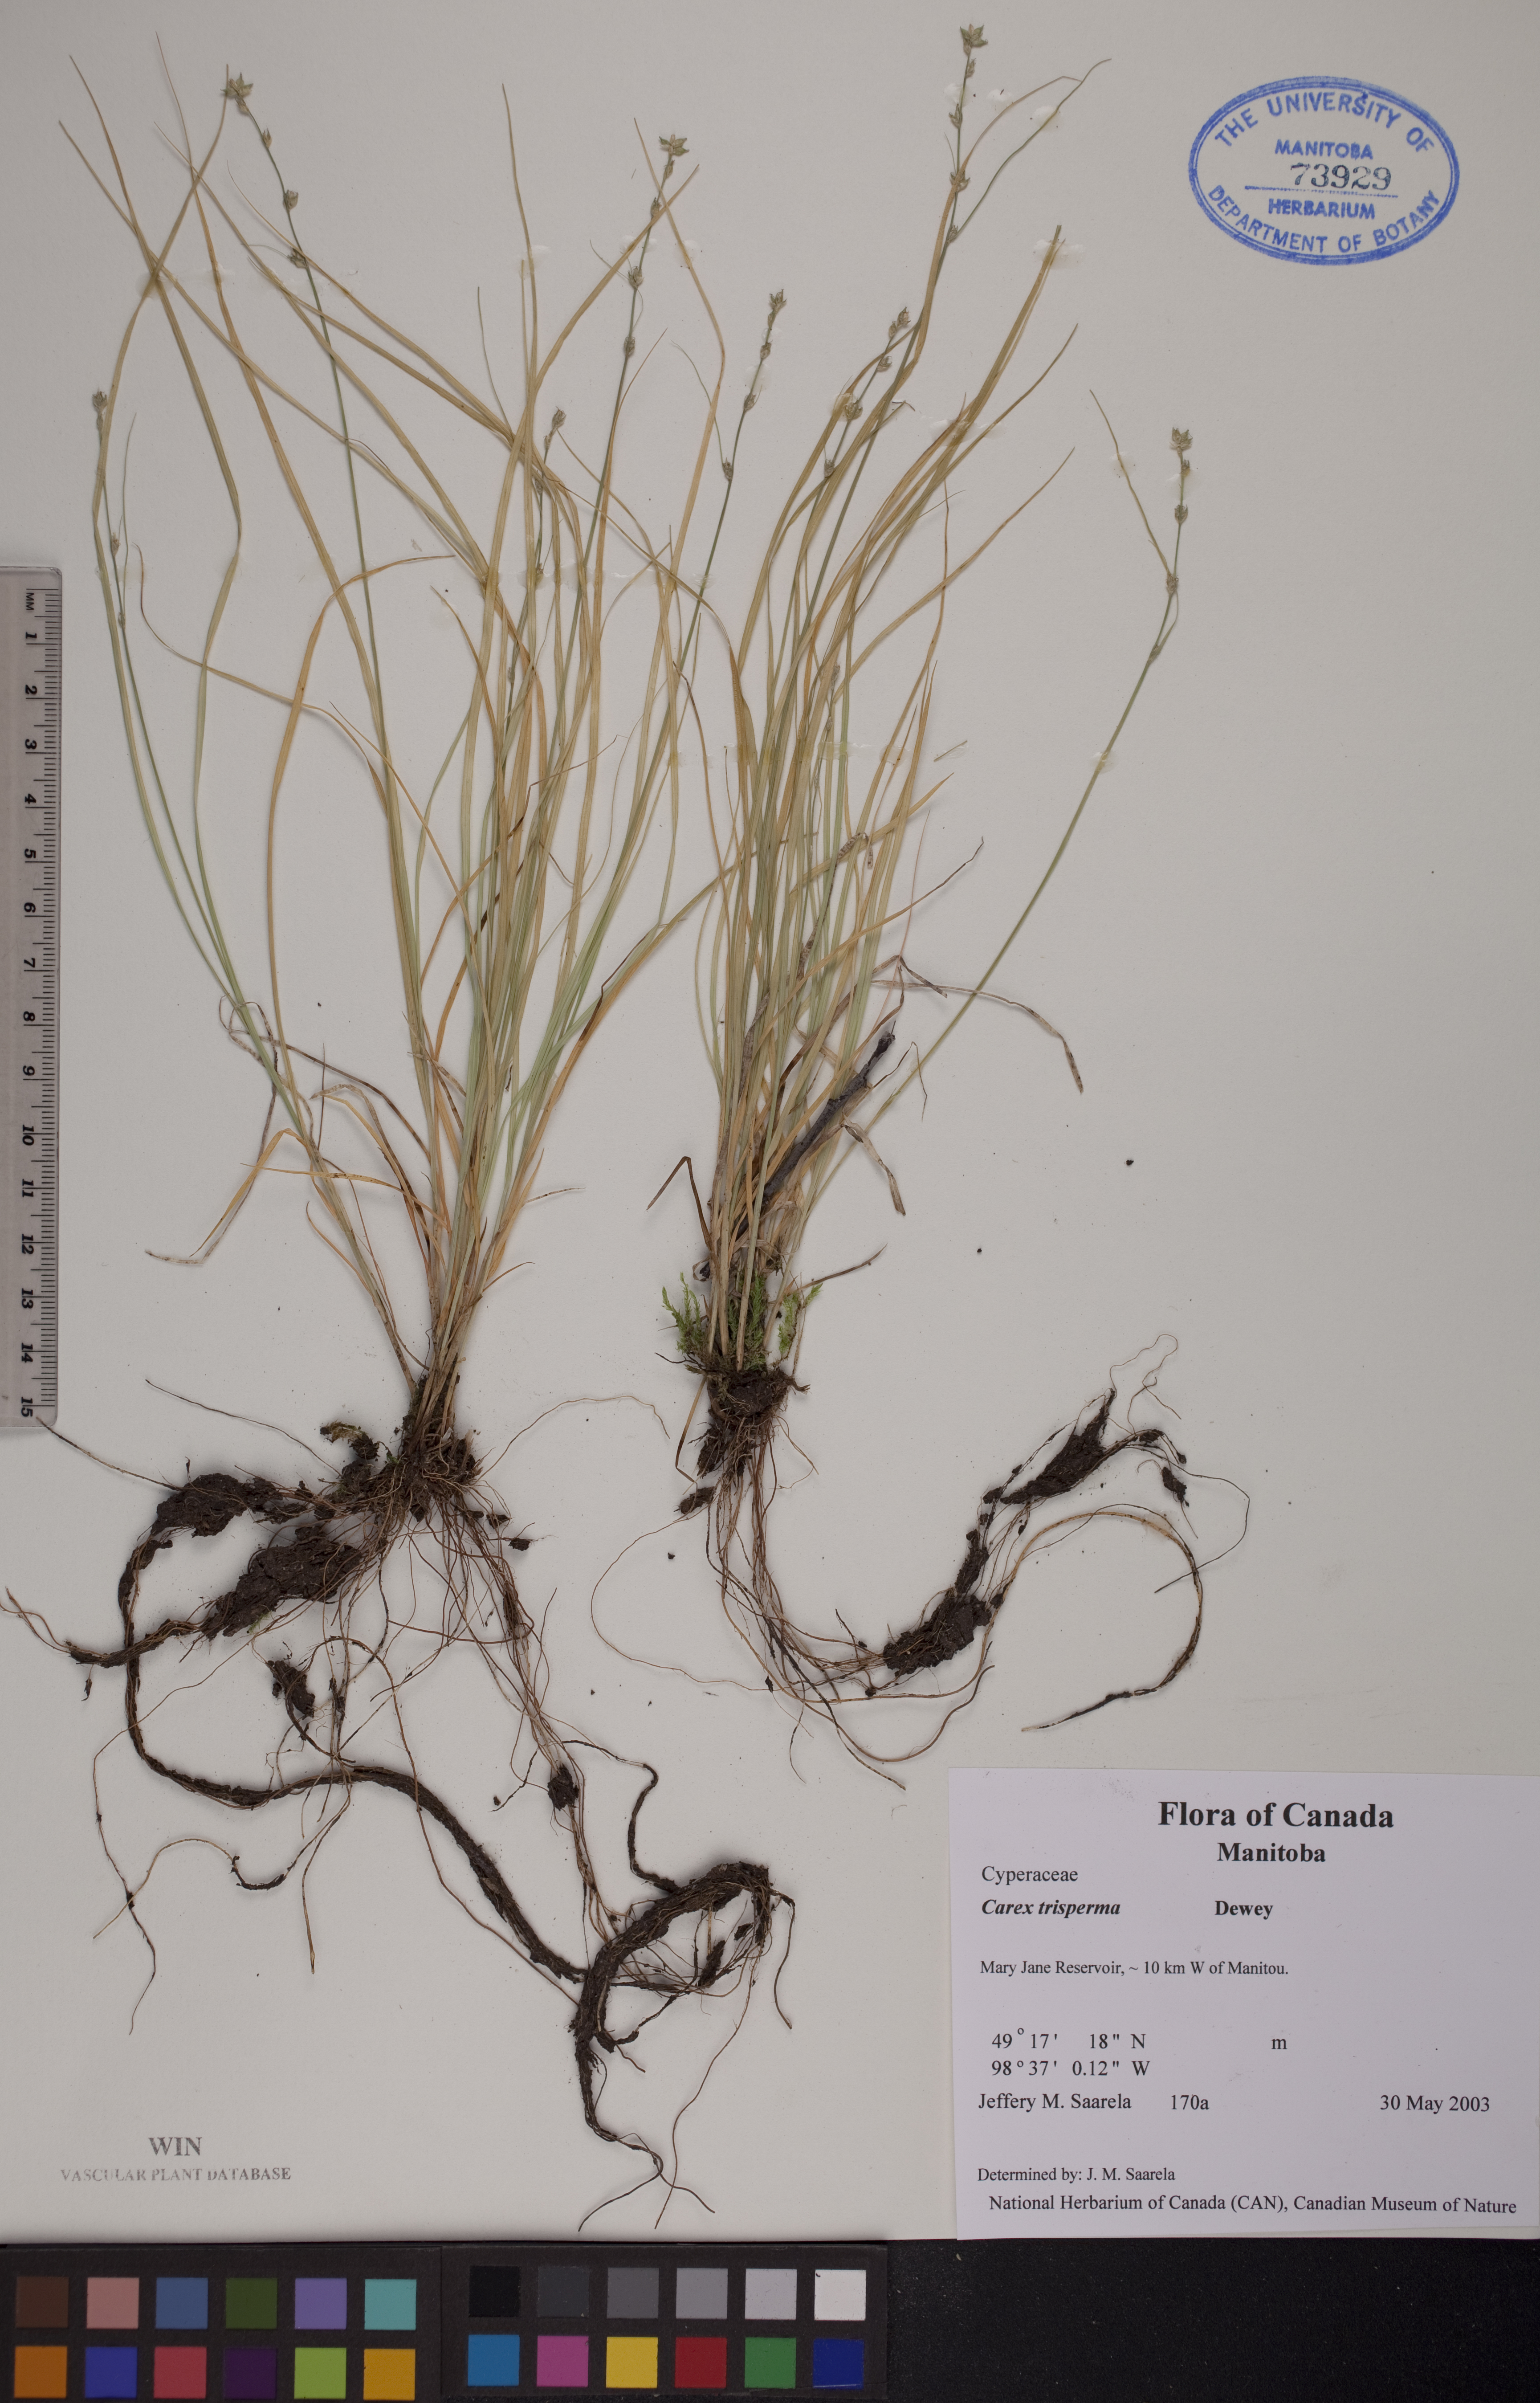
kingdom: Plantae
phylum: Tracheophyta
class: Liliopsida
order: Poales
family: Cyperaceae
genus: Carex
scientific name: Carex trisperma
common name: Three-seeded sedge
